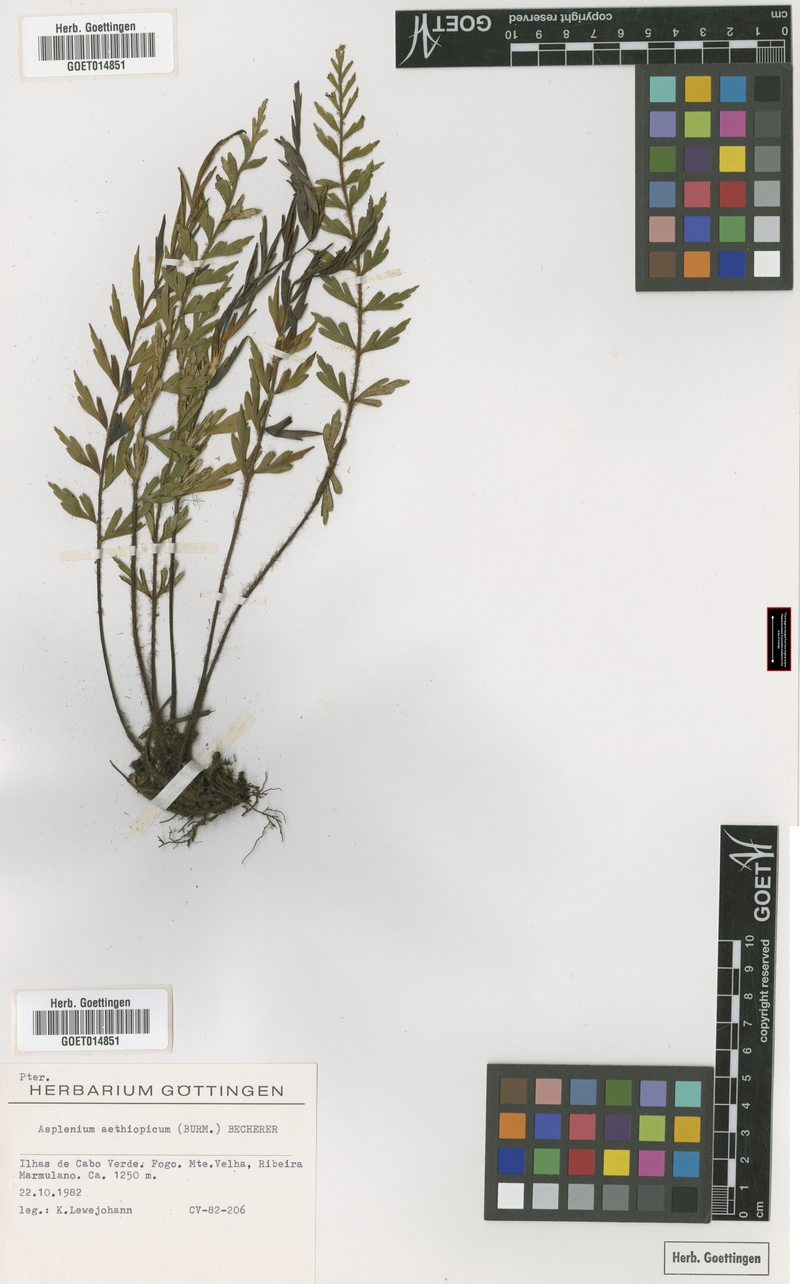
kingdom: Plantae
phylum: Tracheophyta
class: Polypodiopsida
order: Polypodiales
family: Aspleniaceae
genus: Asplenium
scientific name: Asplenium aethiopicum
